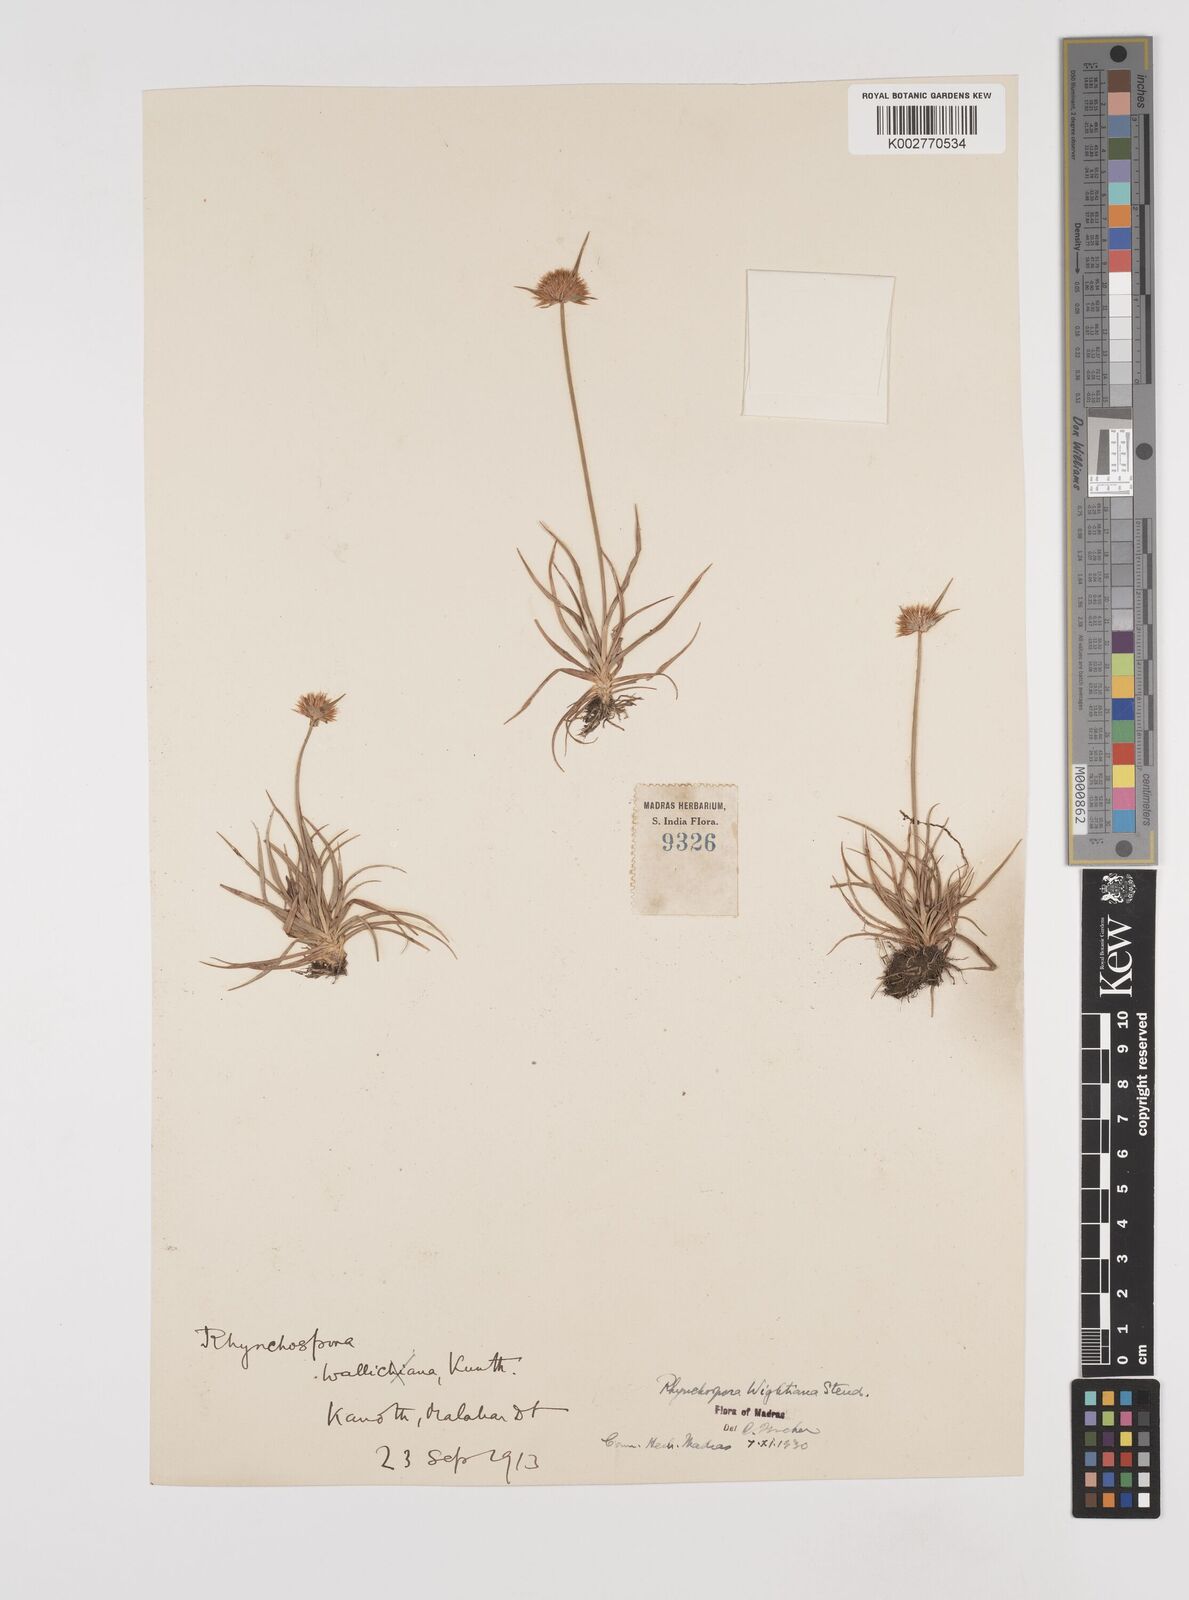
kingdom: Plantae
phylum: Tracheophyta
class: Liliopsida
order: Poales
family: Cyperaceae
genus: Rhynchospora
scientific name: Rhynchospora wightiana
